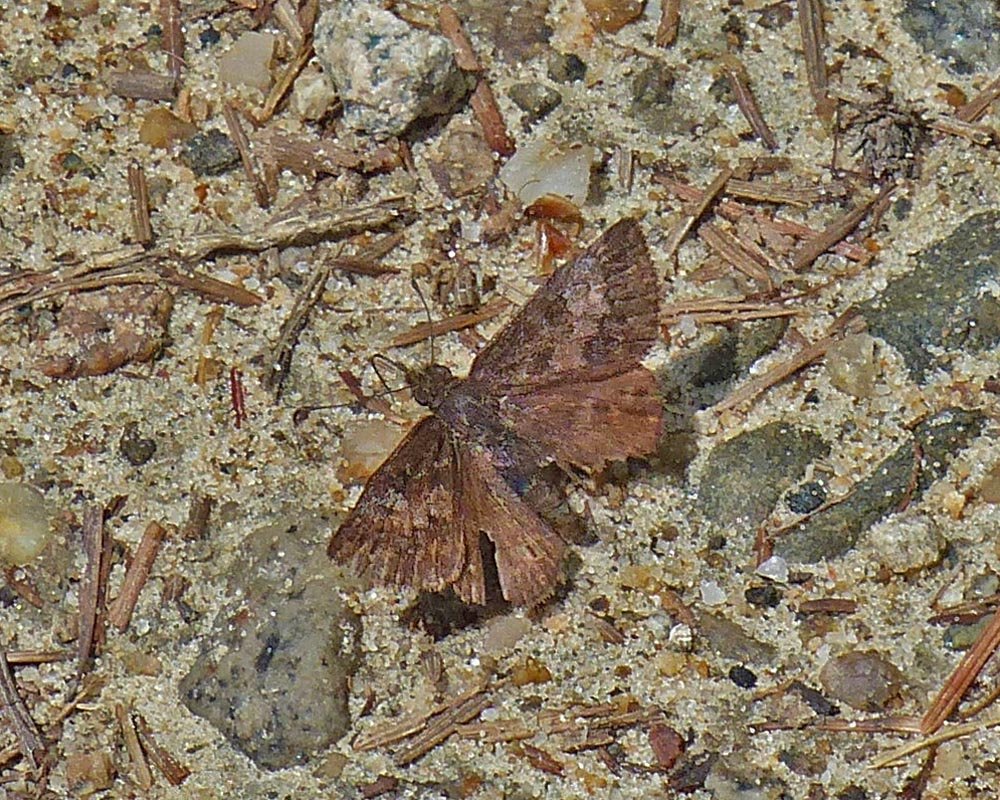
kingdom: Animalia
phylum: Arthropoda
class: Insecta
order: Lepidoptera
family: Hesperiidae
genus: Erynnis
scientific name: Erynnis icelus
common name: Dreamy Duskywing
